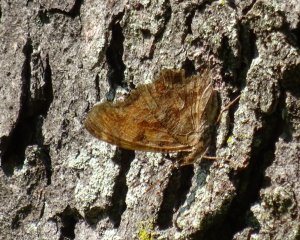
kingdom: Animalia
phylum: Arthropoda
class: Insecta
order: Lepidoptera
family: Nymphalidae
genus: Polygonia
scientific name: Polygonia comma
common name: Eastern Comma
